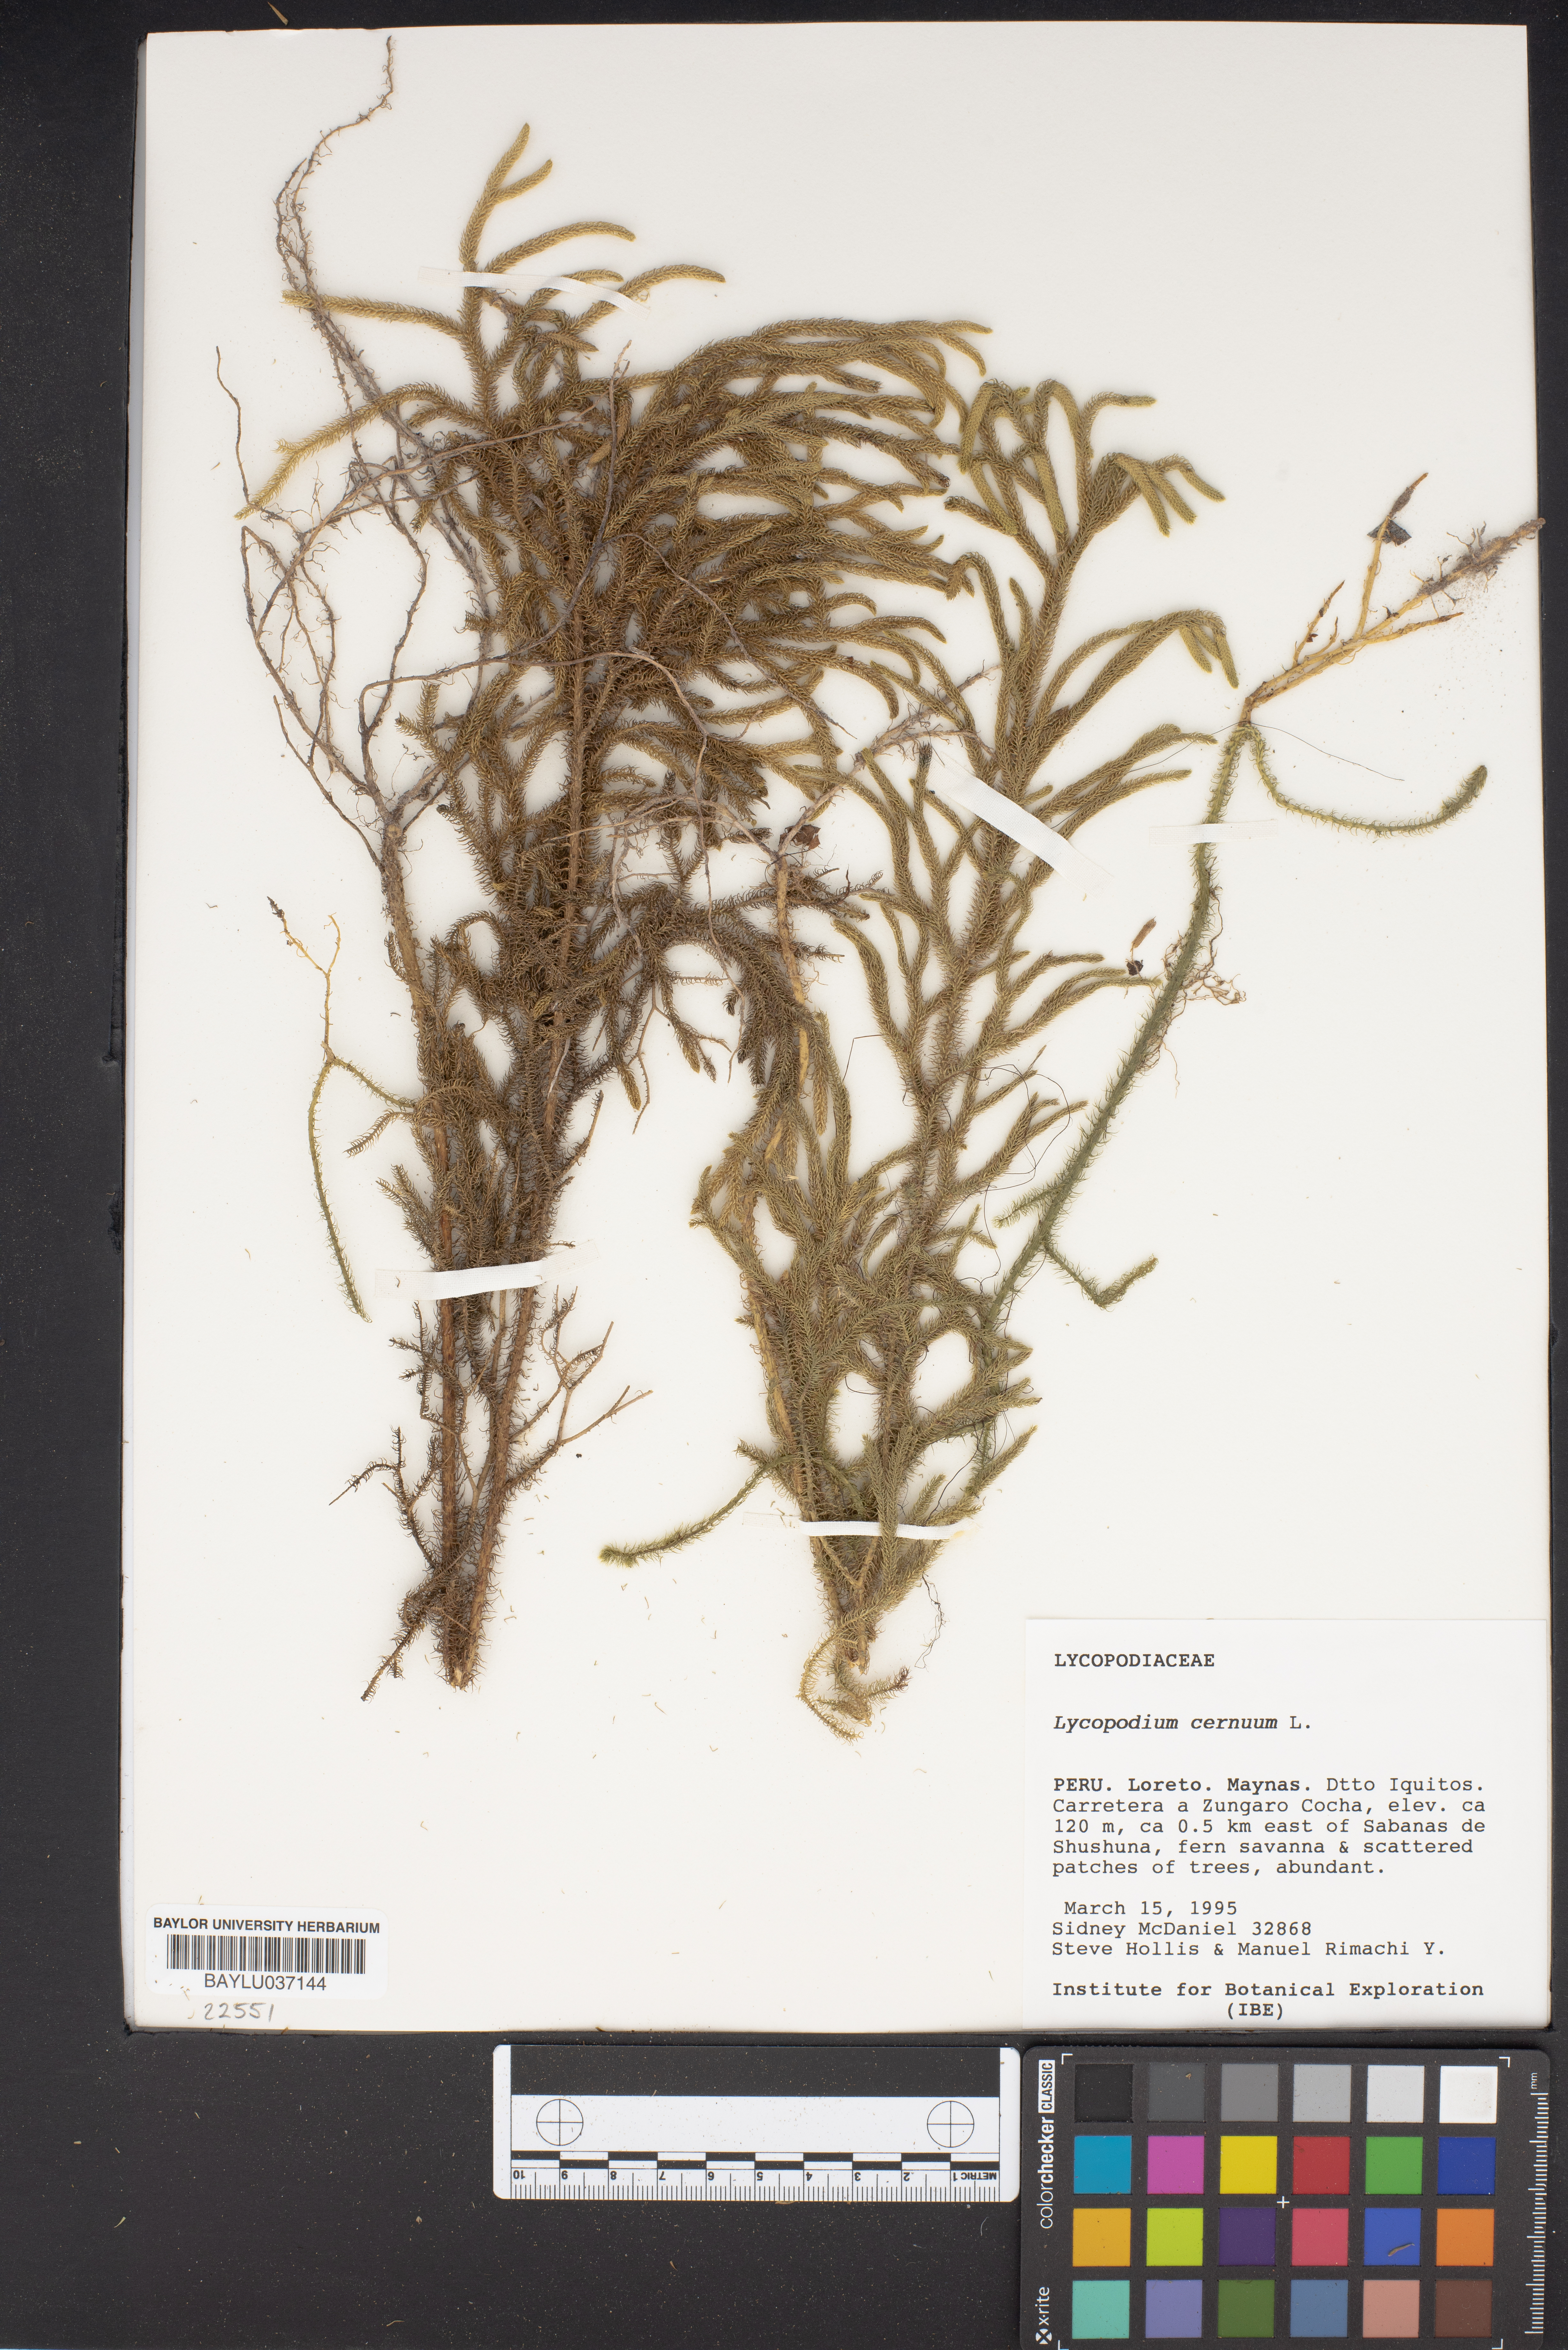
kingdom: Plantae
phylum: Tracheophyta
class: Lycopodiopsida
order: Lycopodiales
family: Lycopodiaceae
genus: Palhinhaea
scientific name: Palhinhaea cernua
